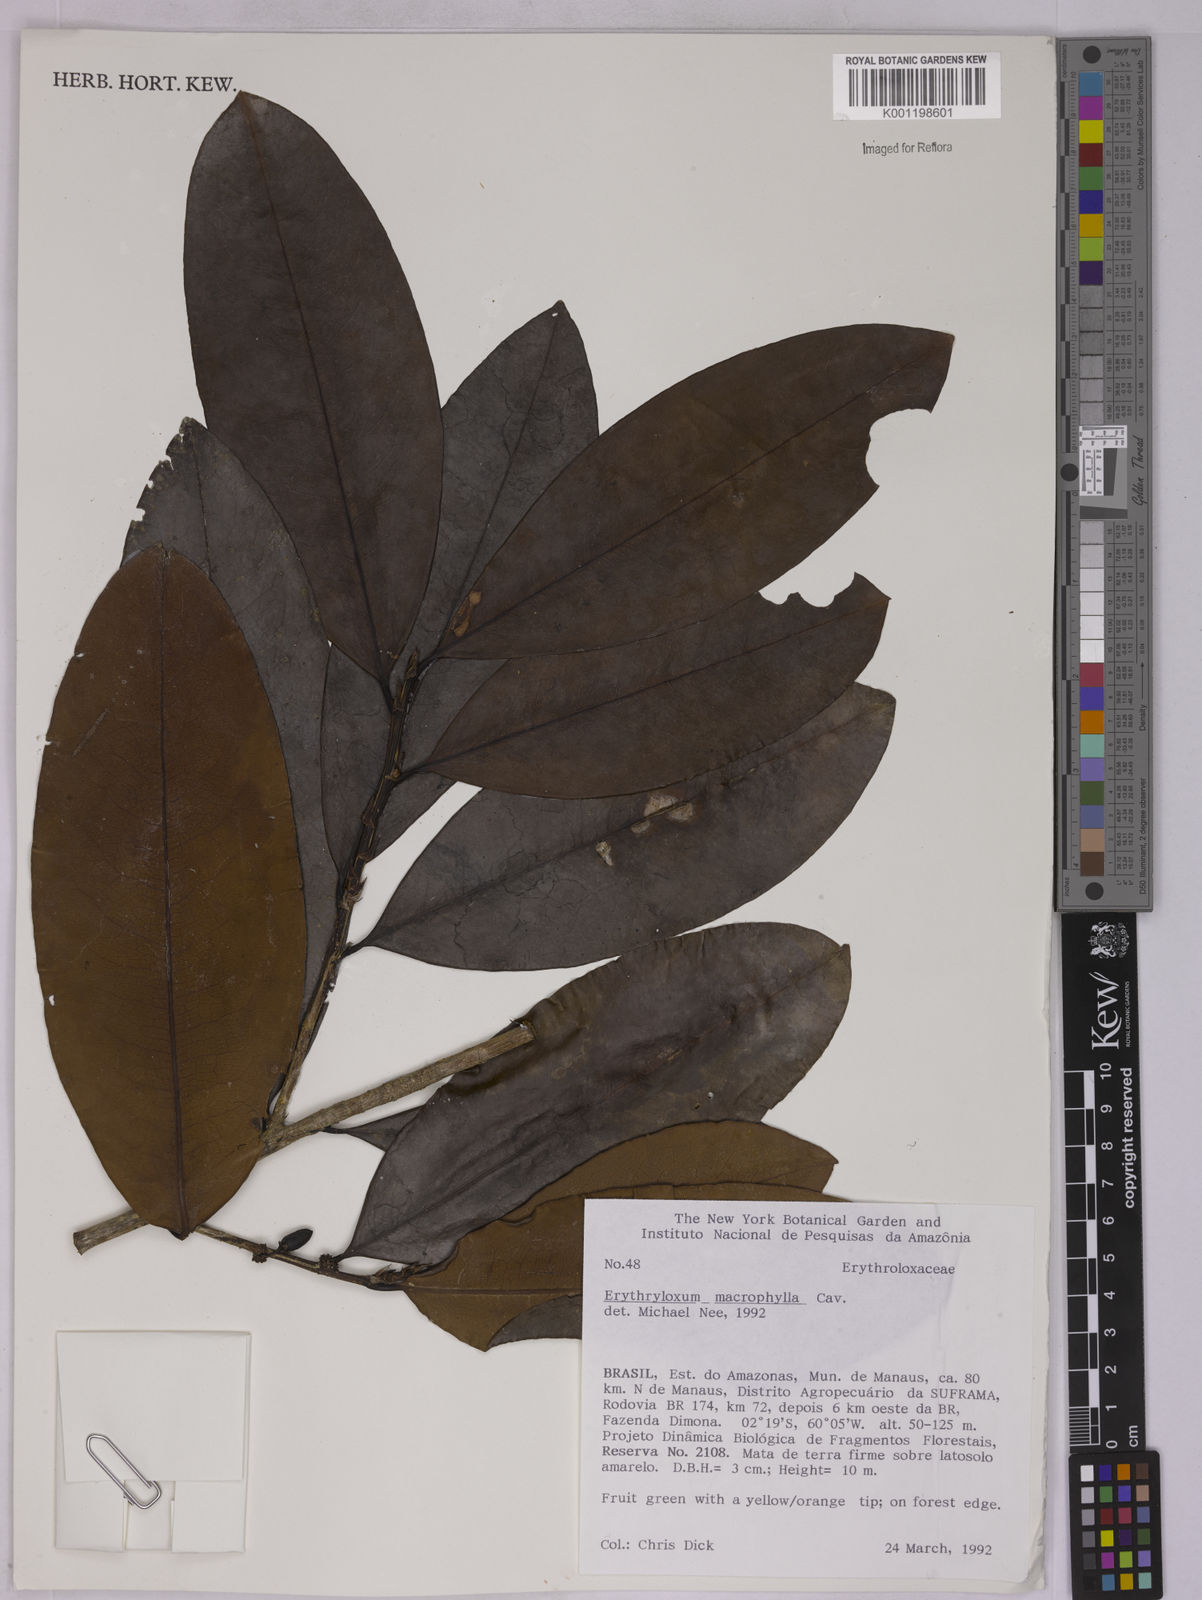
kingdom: Plantae
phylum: Tracheophyta
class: Magnoliopsida
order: Malpighiales
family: Erythroxylaceae
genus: Erythroxylum
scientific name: Erythroxylum macrophyllum
